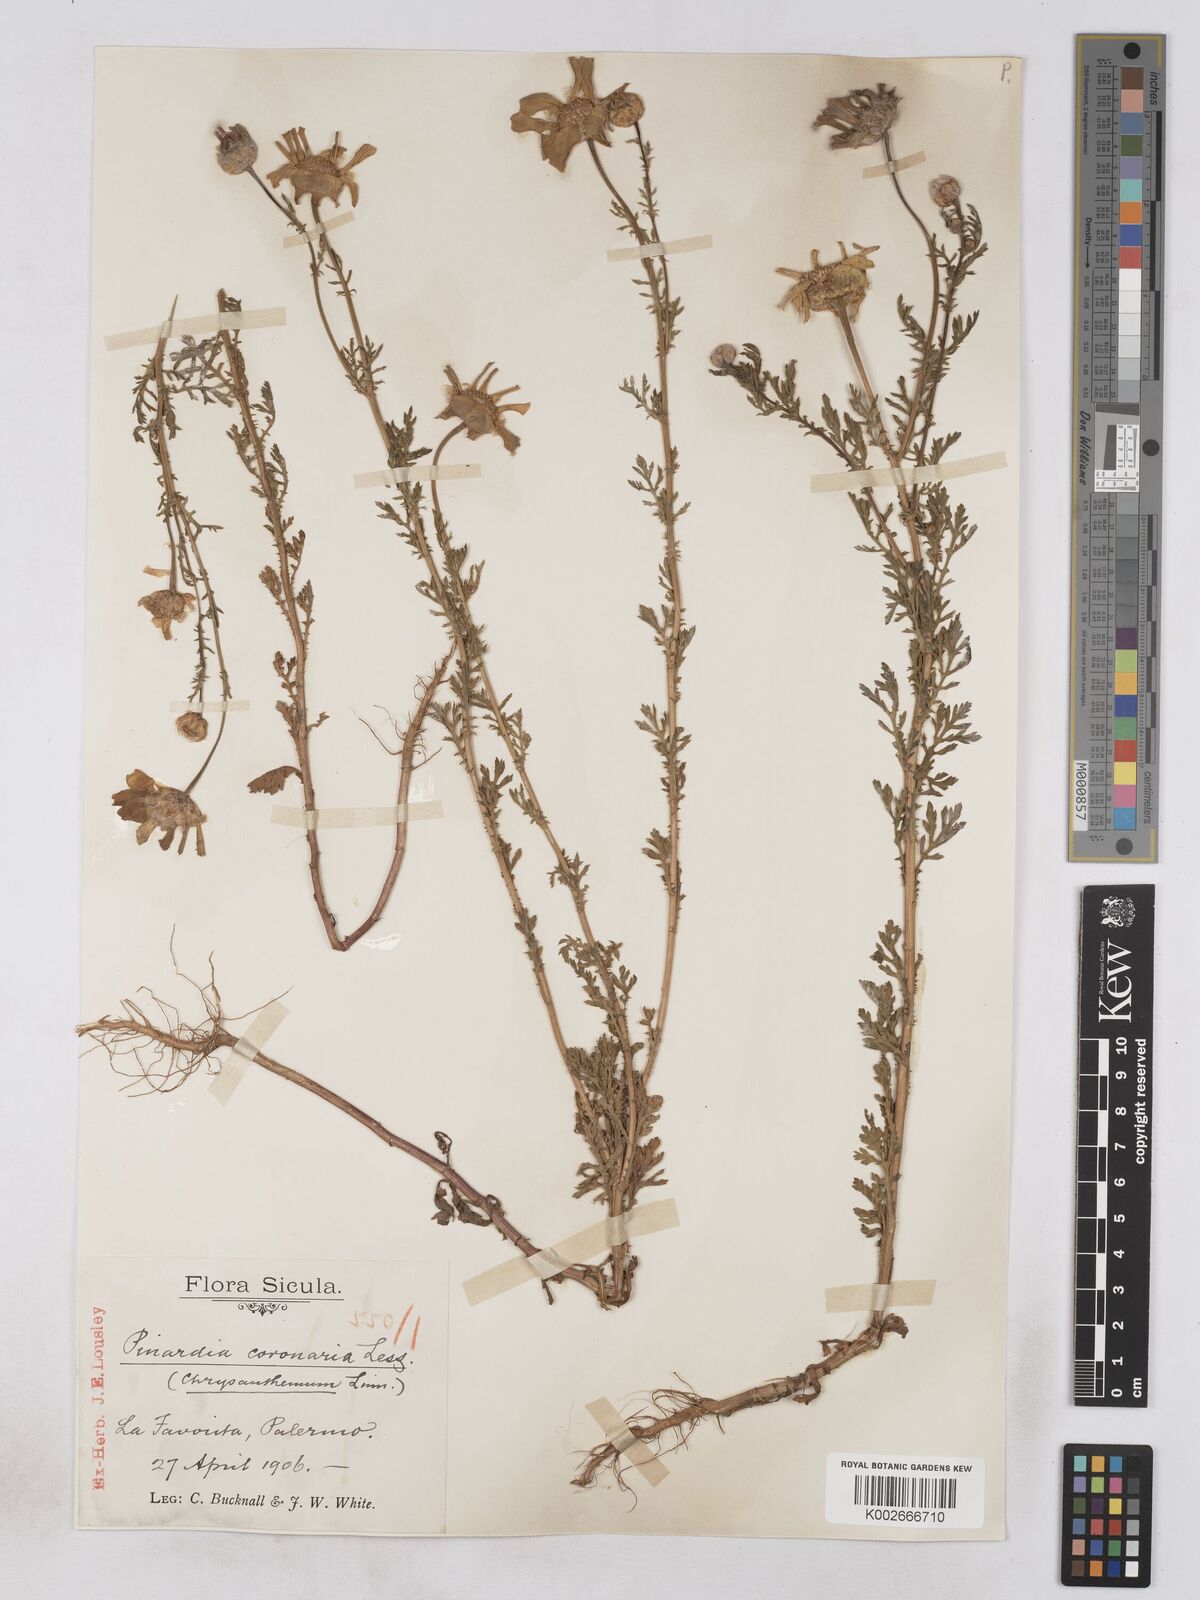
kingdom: Plantae
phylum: Tracheophyta
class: Magnoliopsida
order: Asterales
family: Asteraceae
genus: Glebionis
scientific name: Glebionis coronaria
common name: Crowndaisy
